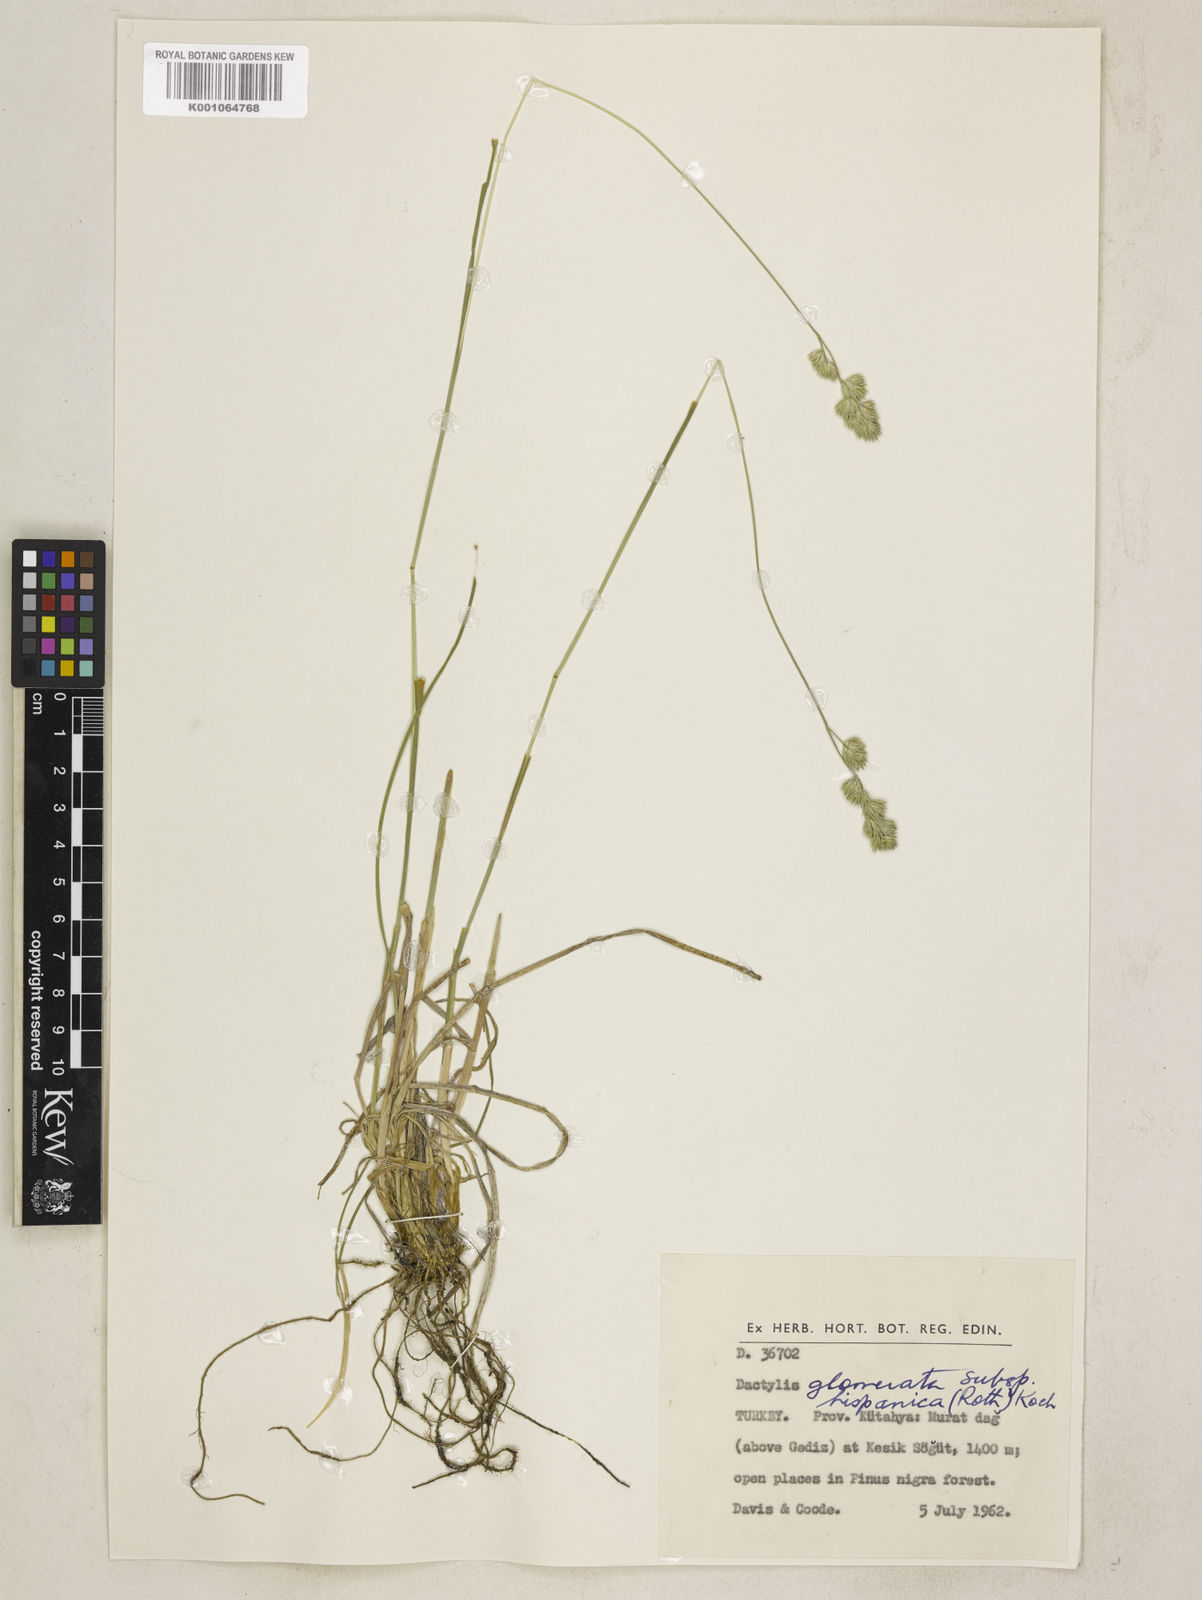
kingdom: Plantae
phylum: Tracheophyta
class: Liliopsida
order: Poales
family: Poaceae
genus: Dactylis
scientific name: Dactylis glomerata
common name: Orchardgrass
